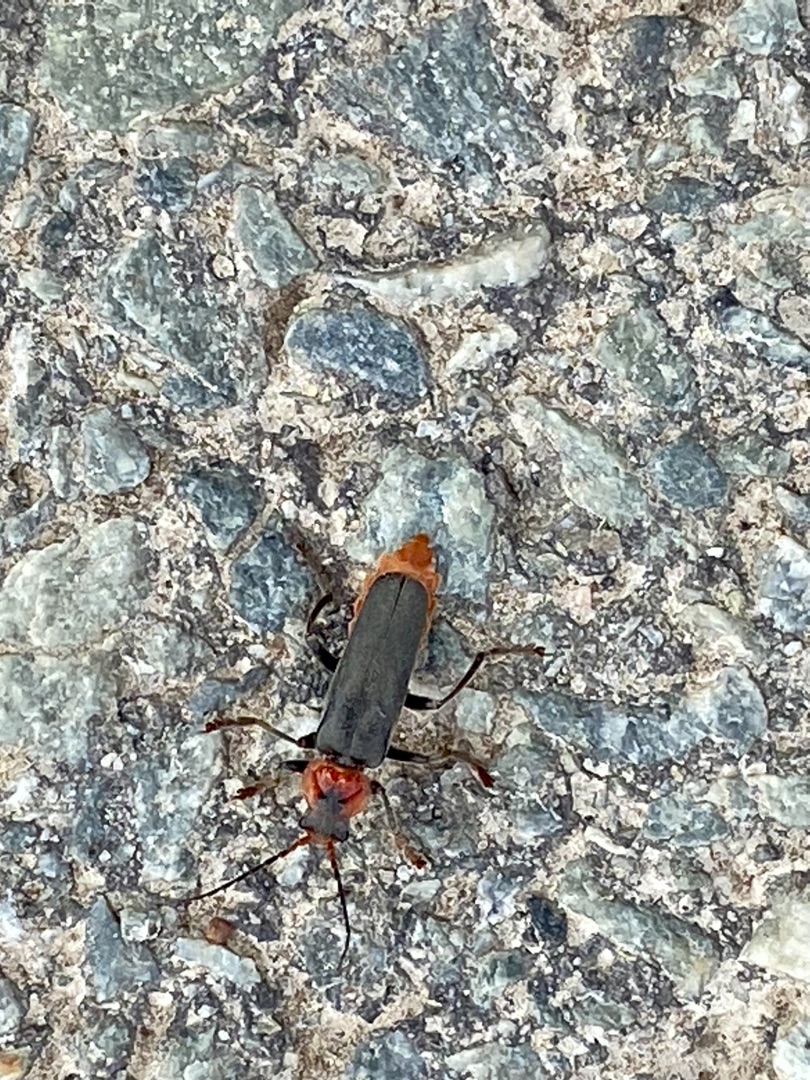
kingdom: Animalia
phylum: Arthropoda
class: Insecta
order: Coleoptera
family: Cantharidae
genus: Cantharis
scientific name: Cantharis fusca
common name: Stor blødvinge
